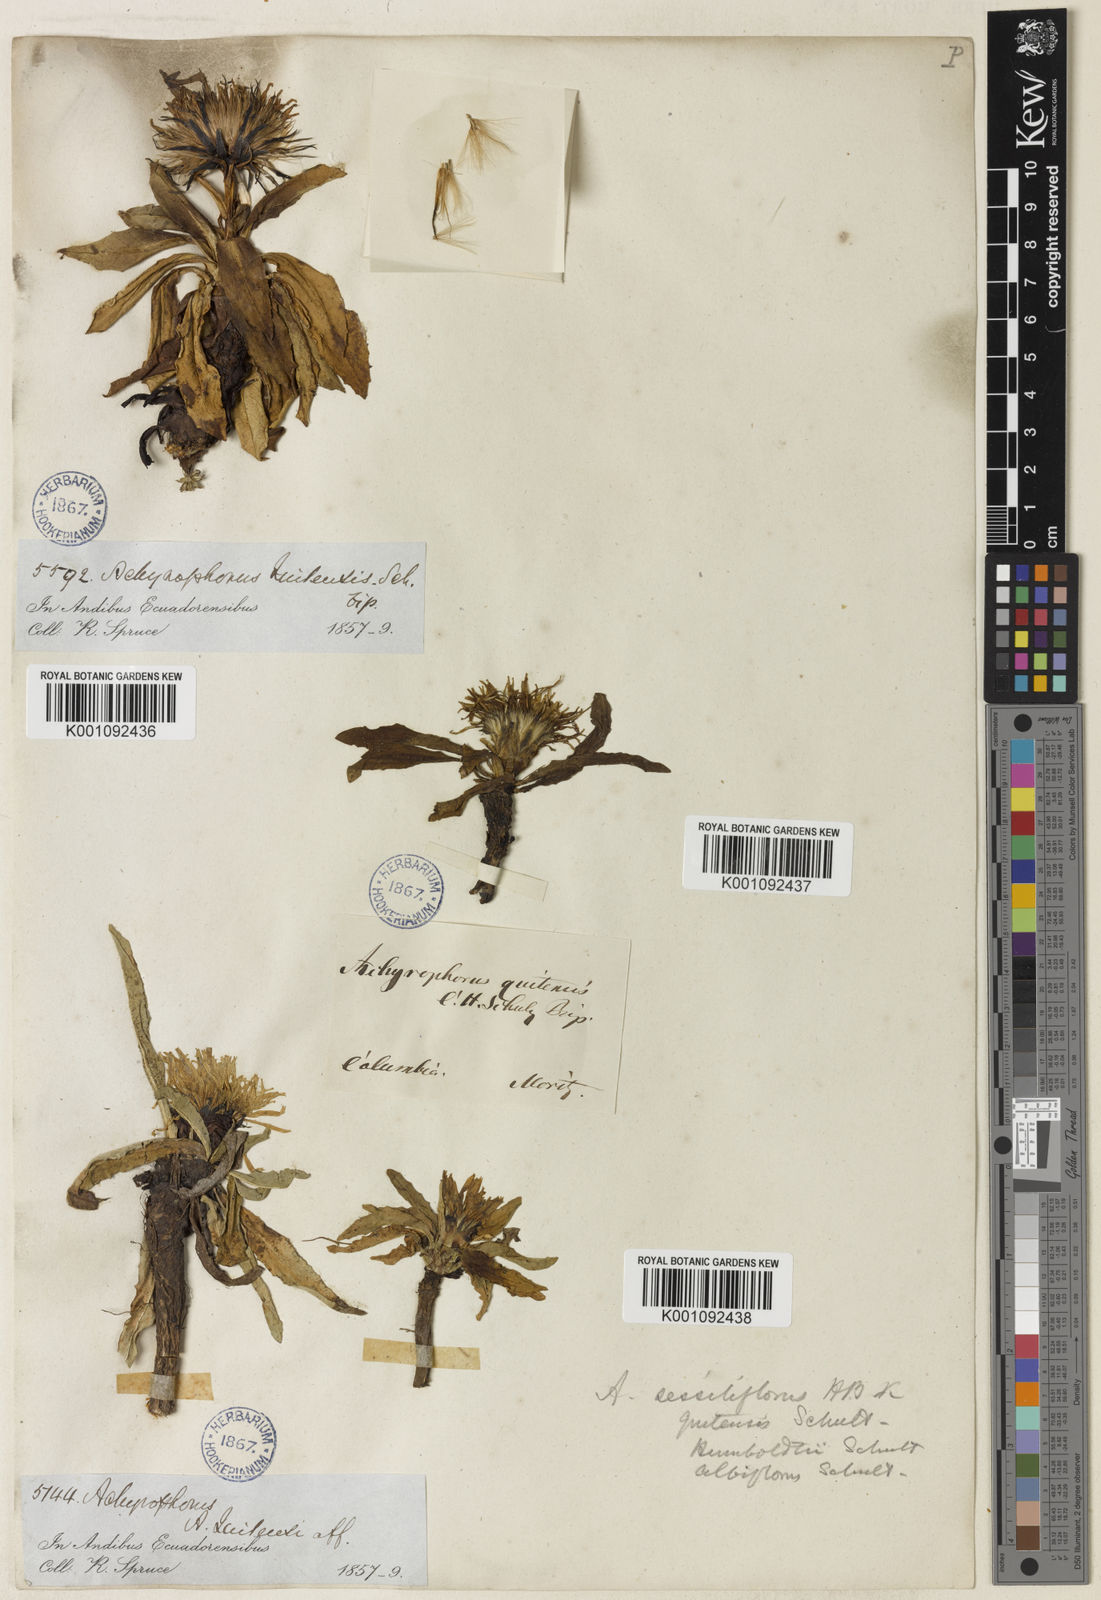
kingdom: Plantae
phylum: Tracheophyta
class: Magnoliopsida
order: Asterales
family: Asteraceae
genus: Hypochaeris
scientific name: Hypochaeris
